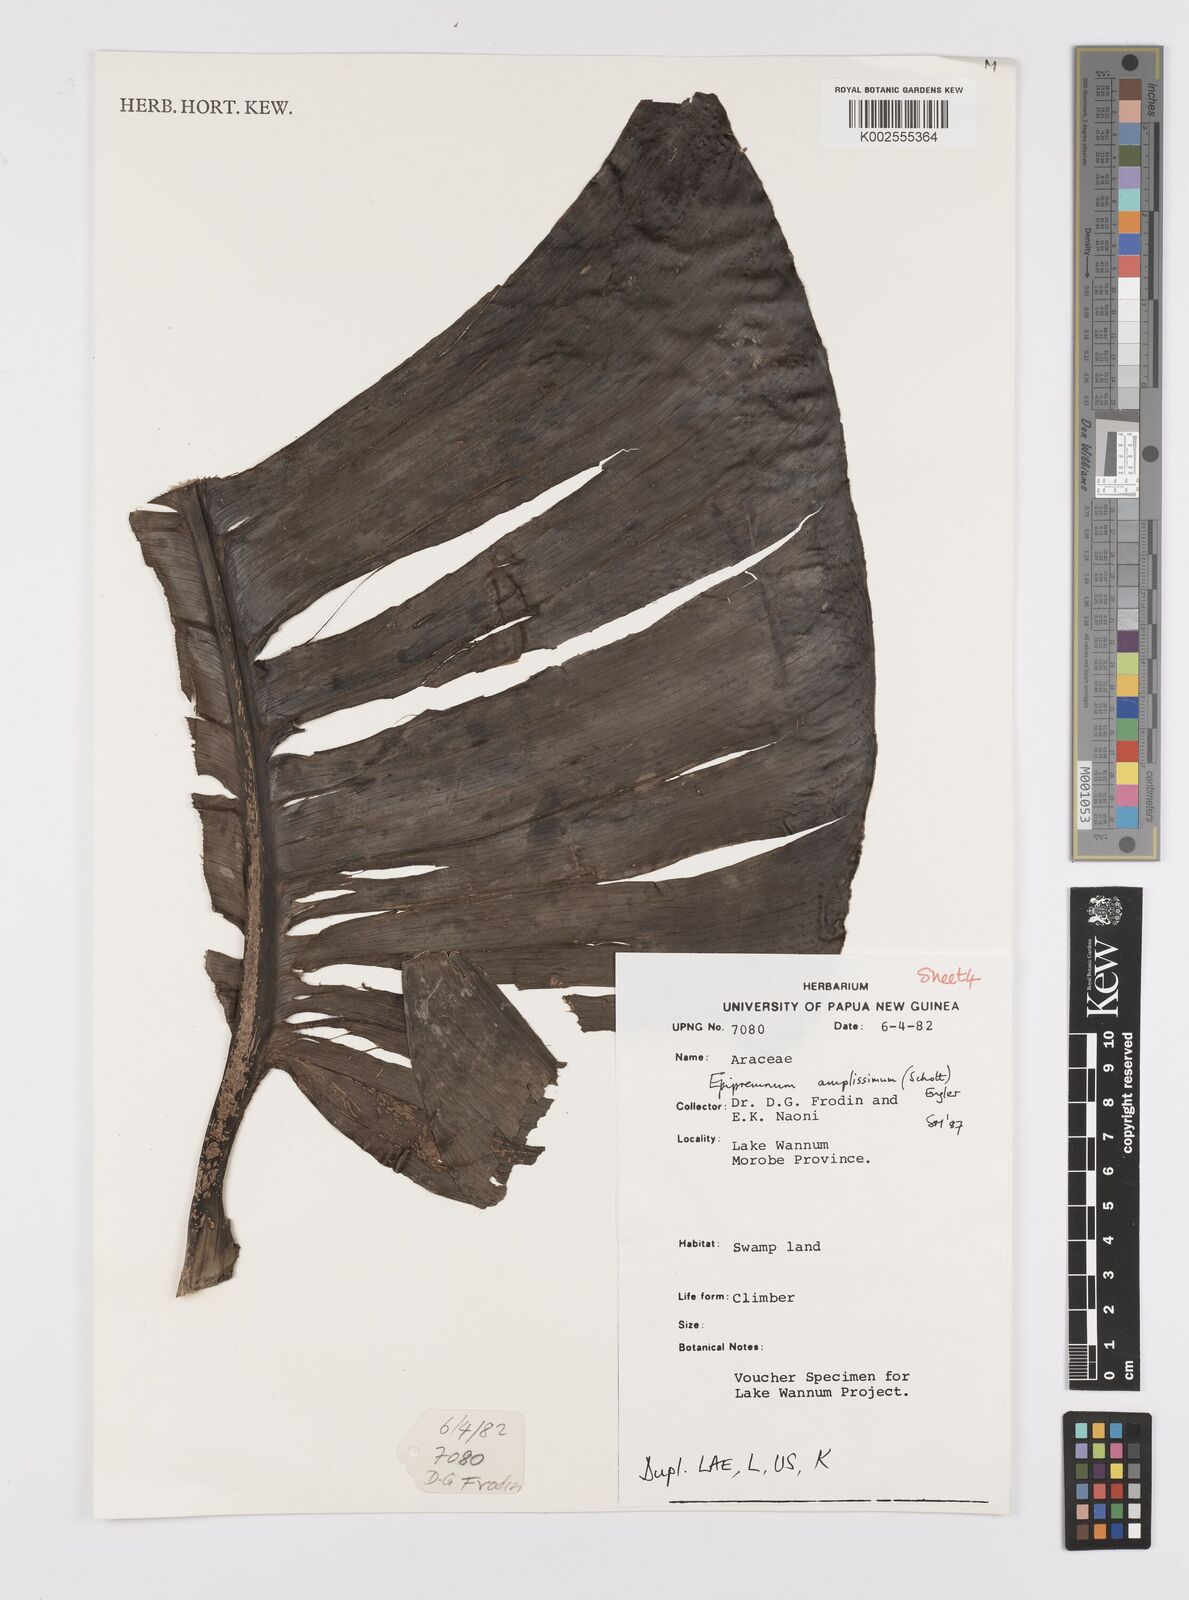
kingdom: Plantae
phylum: Tracheophyta
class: Liliopsida
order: Alismatales
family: Araceae
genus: Epipremnum
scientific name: Epipremnum amplissimum
